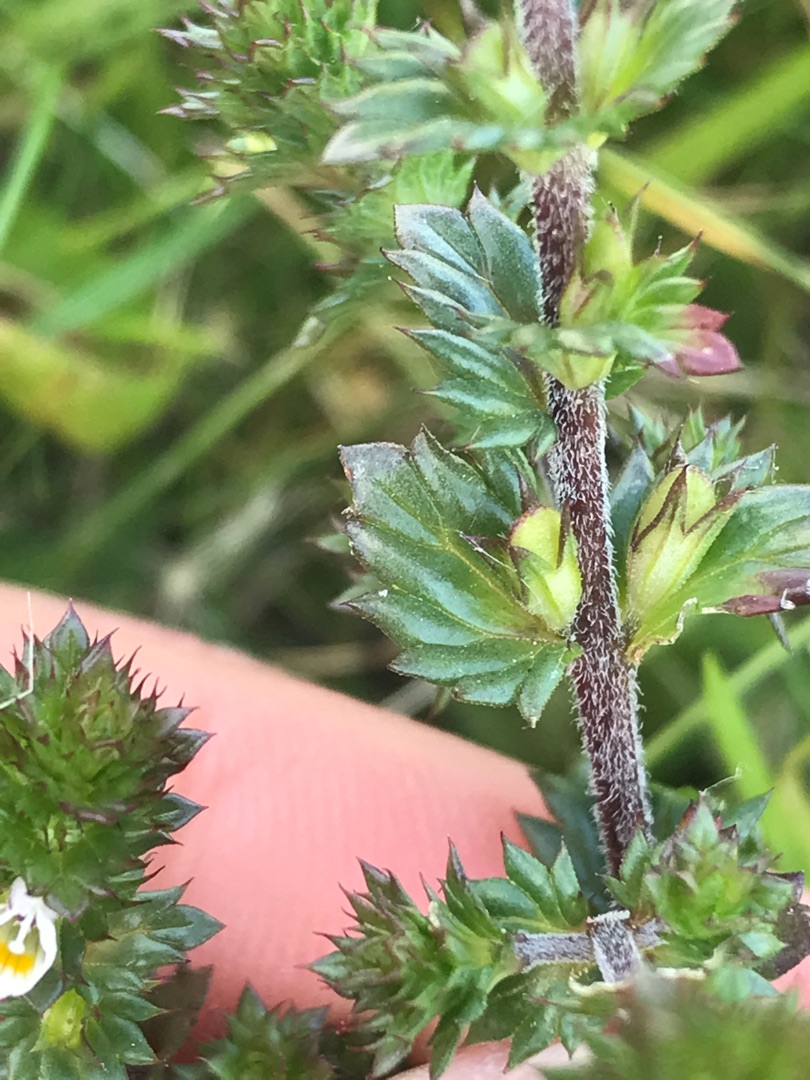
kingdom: Plantae
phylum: Tracheophyta
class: Magnoliopsida
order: Lamiales
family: Orobanchaceae
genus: Euphrasia
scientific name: Euphrasia stricta
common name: Spids øjentrøst
